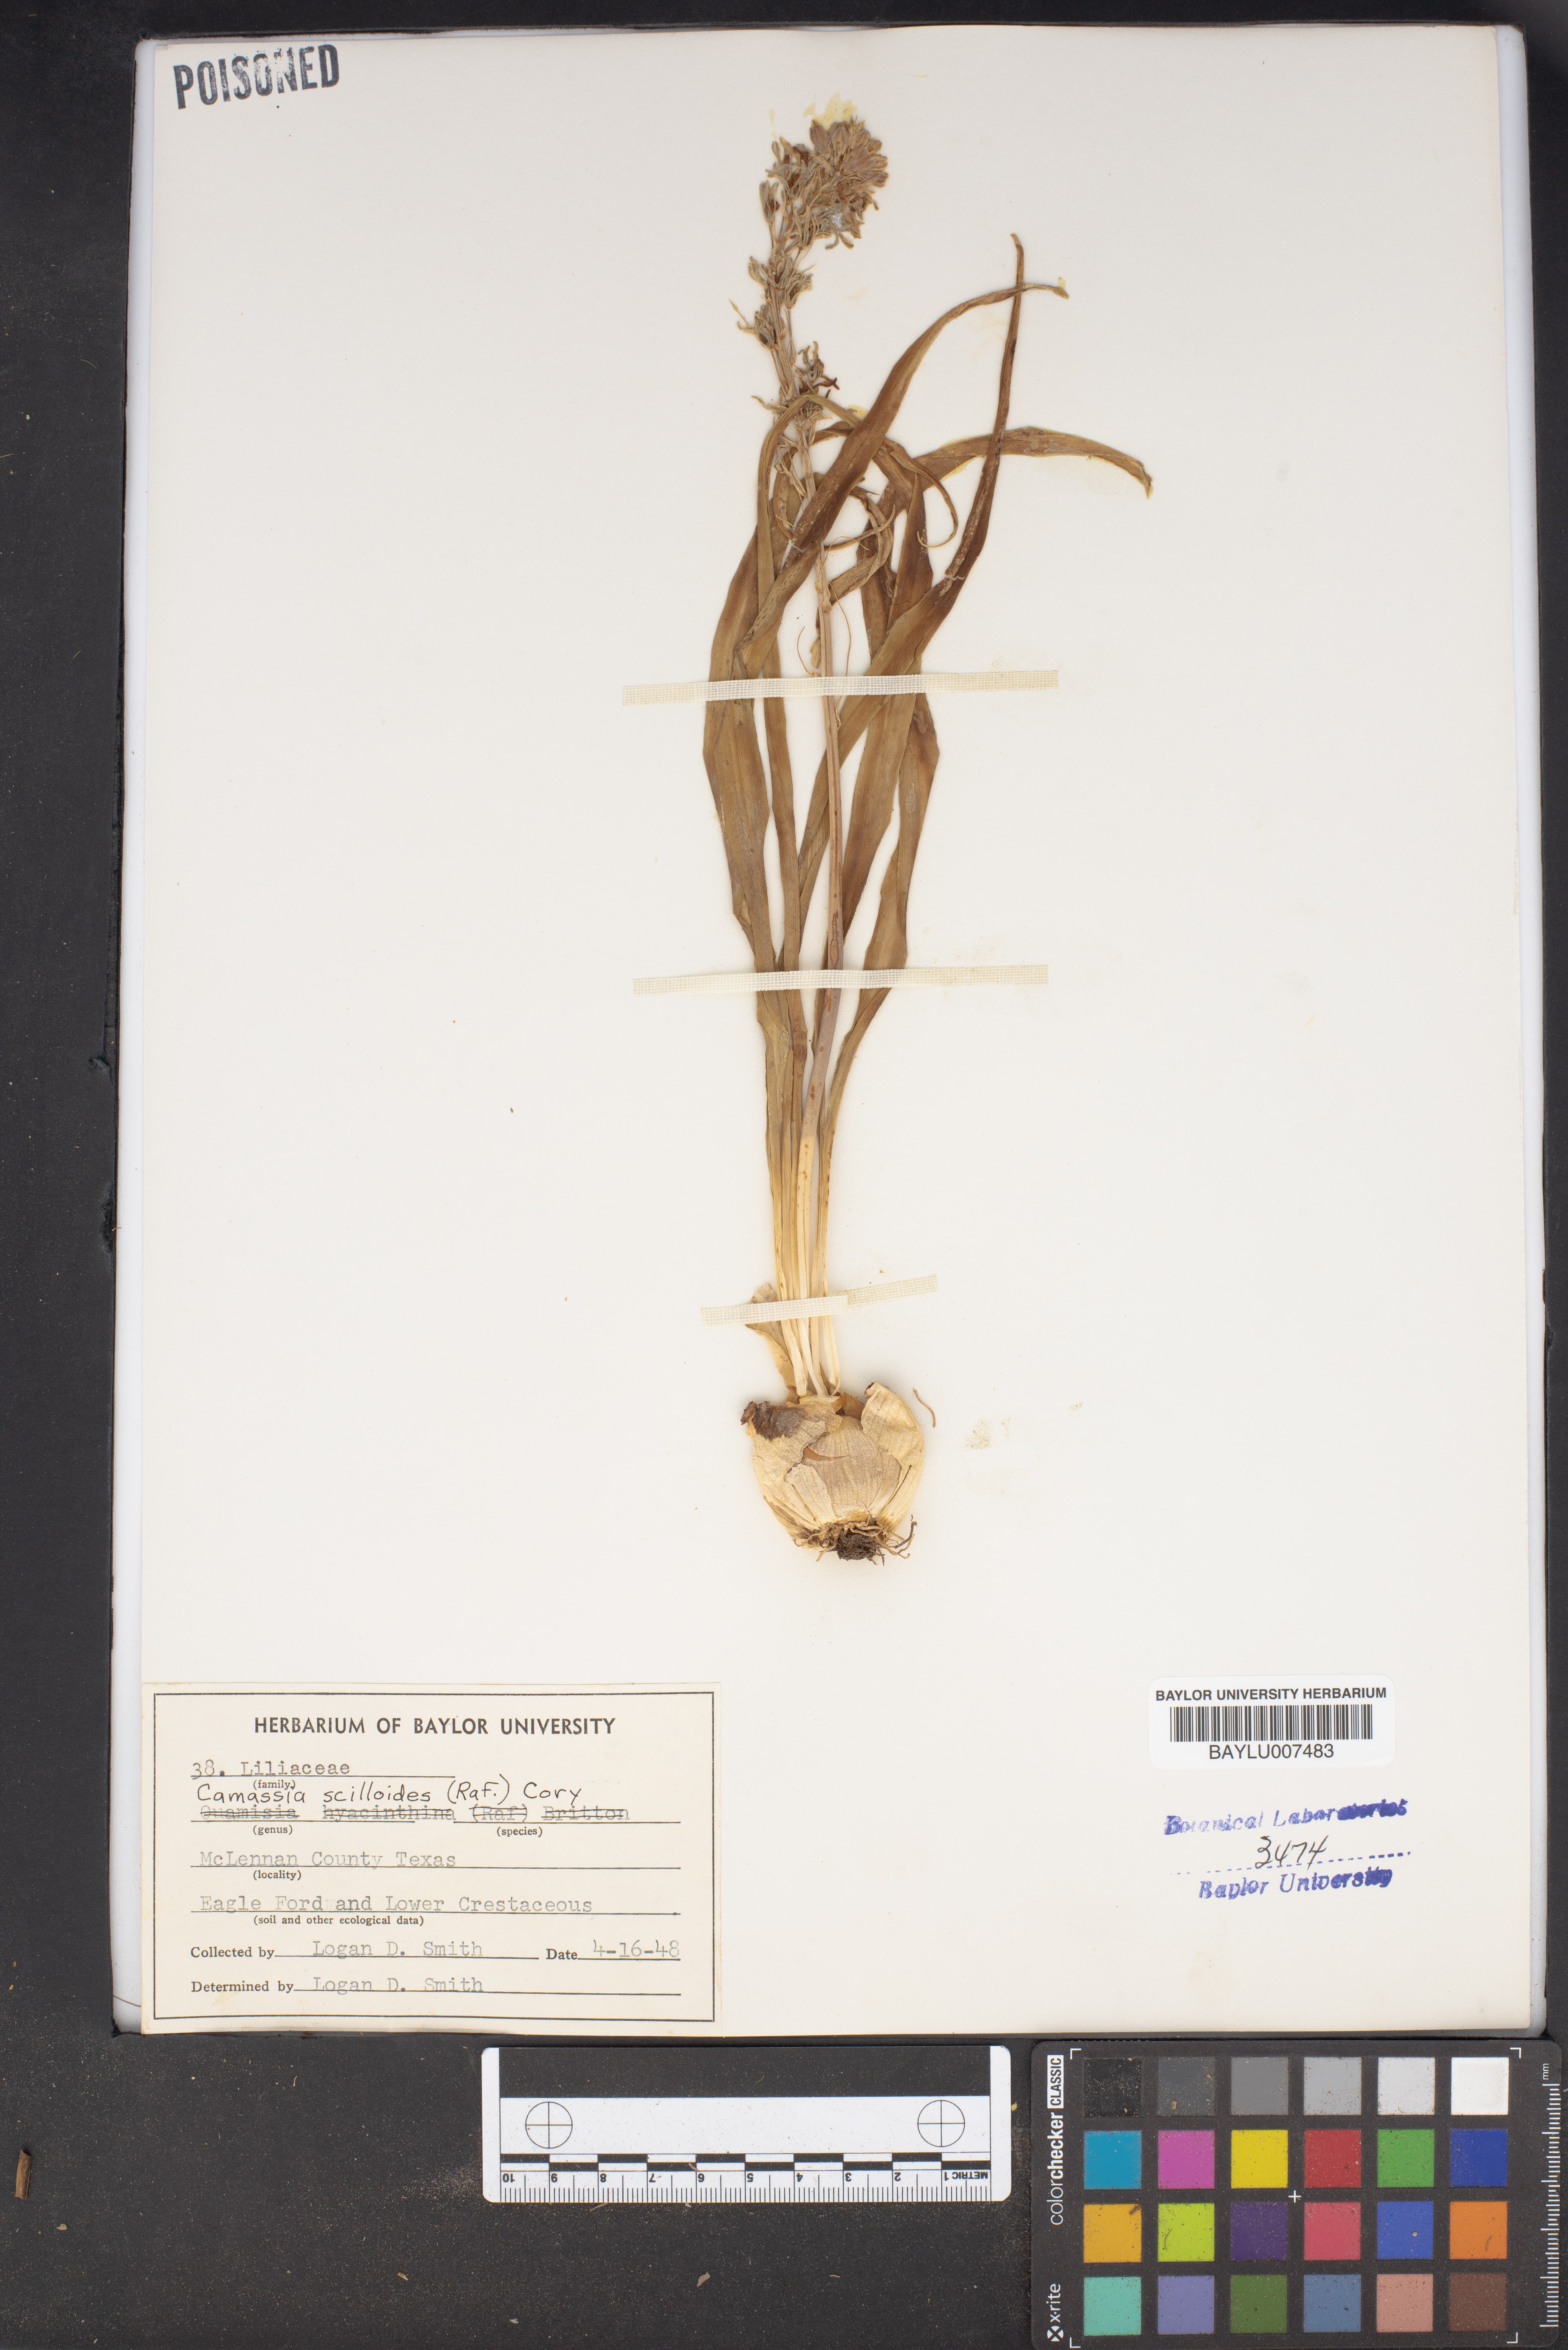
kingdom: Plantae
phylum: Tracheophyta
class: Liliopsida
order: Asparagales
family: Asparagaceae
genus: Camassia
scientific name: Camassia scilloides
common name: Wild hyacinth
